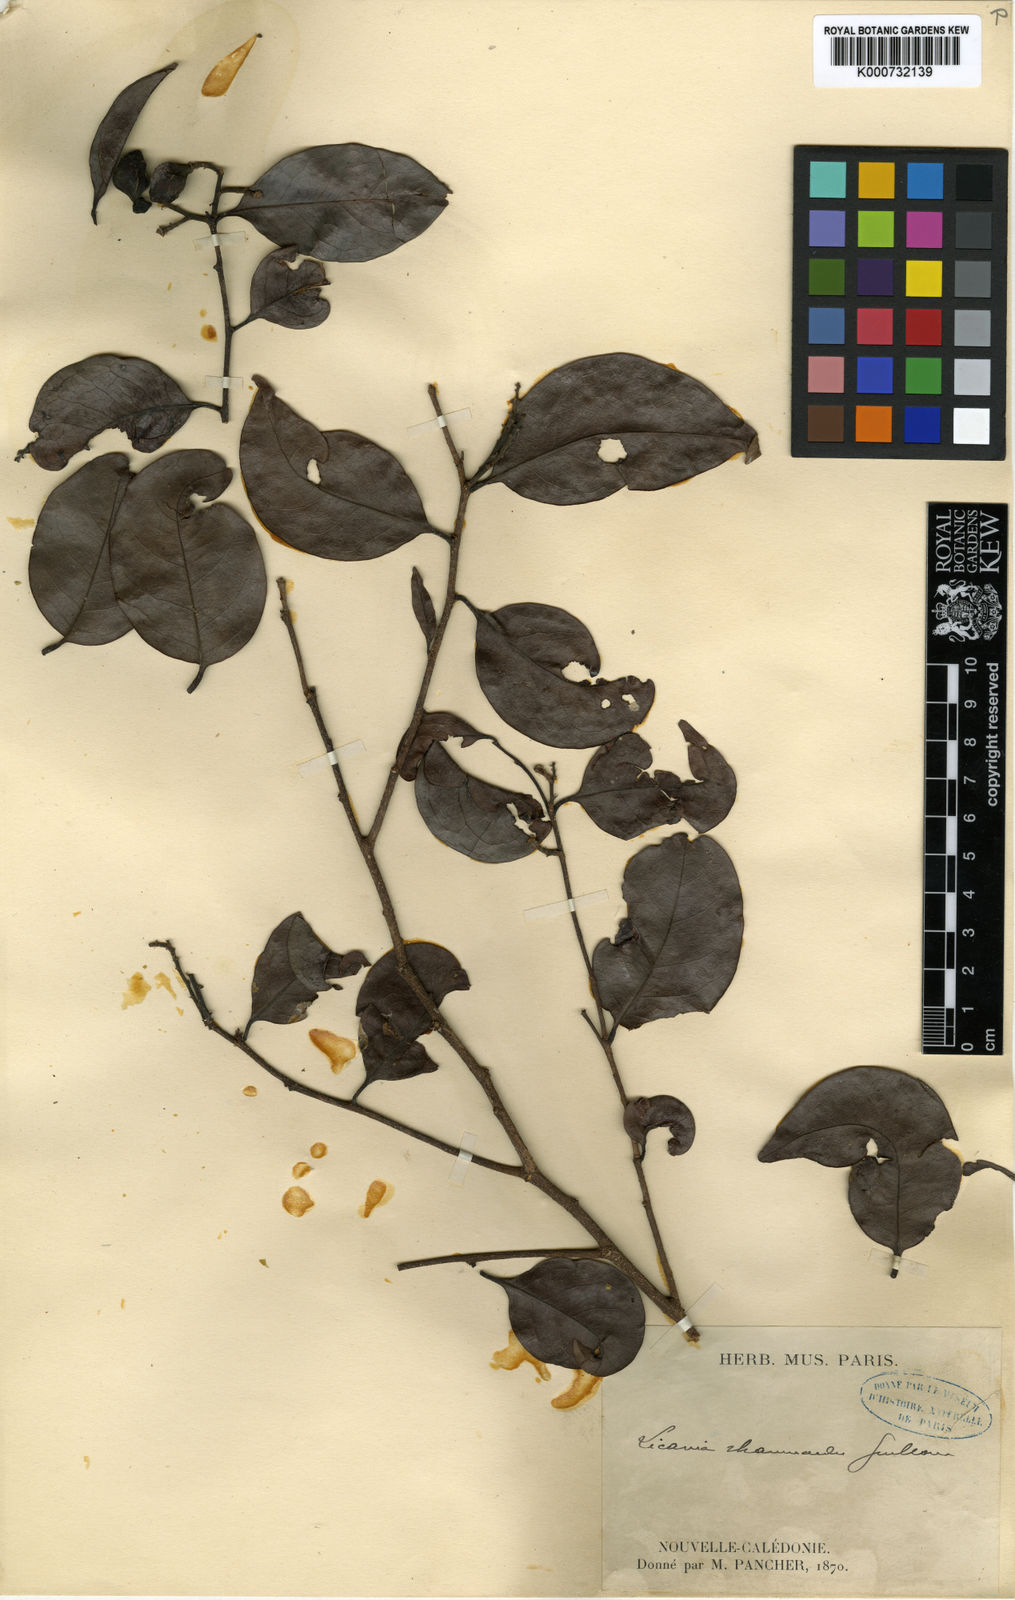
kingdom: Plantae
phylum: Tracheophyta
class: Magnoliopsida
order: Malpighiales
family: Chrysobalanaceae
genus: Hunga
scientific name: Hunga rhamnoides
